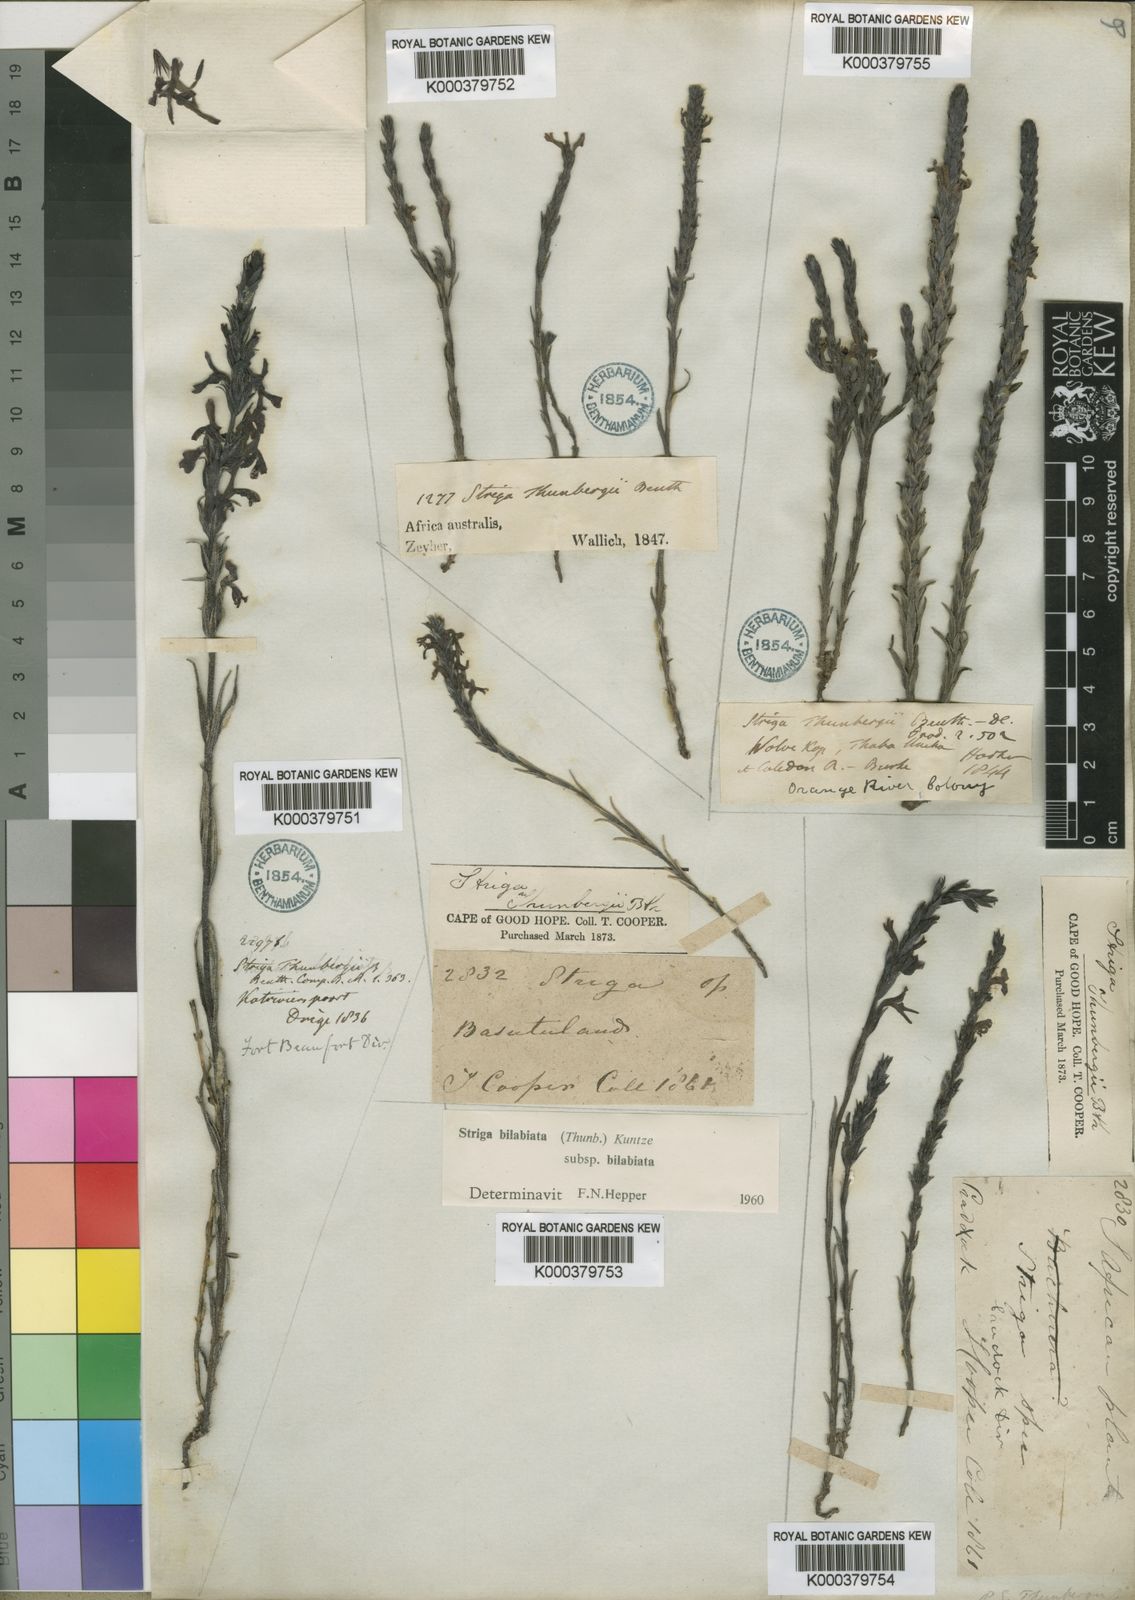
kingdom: Plantae
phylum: Tracheophyta
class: Magnoliopsida
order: Lamiales
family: Orobanchaceae
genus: Striga
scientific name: Striga bilabiata
